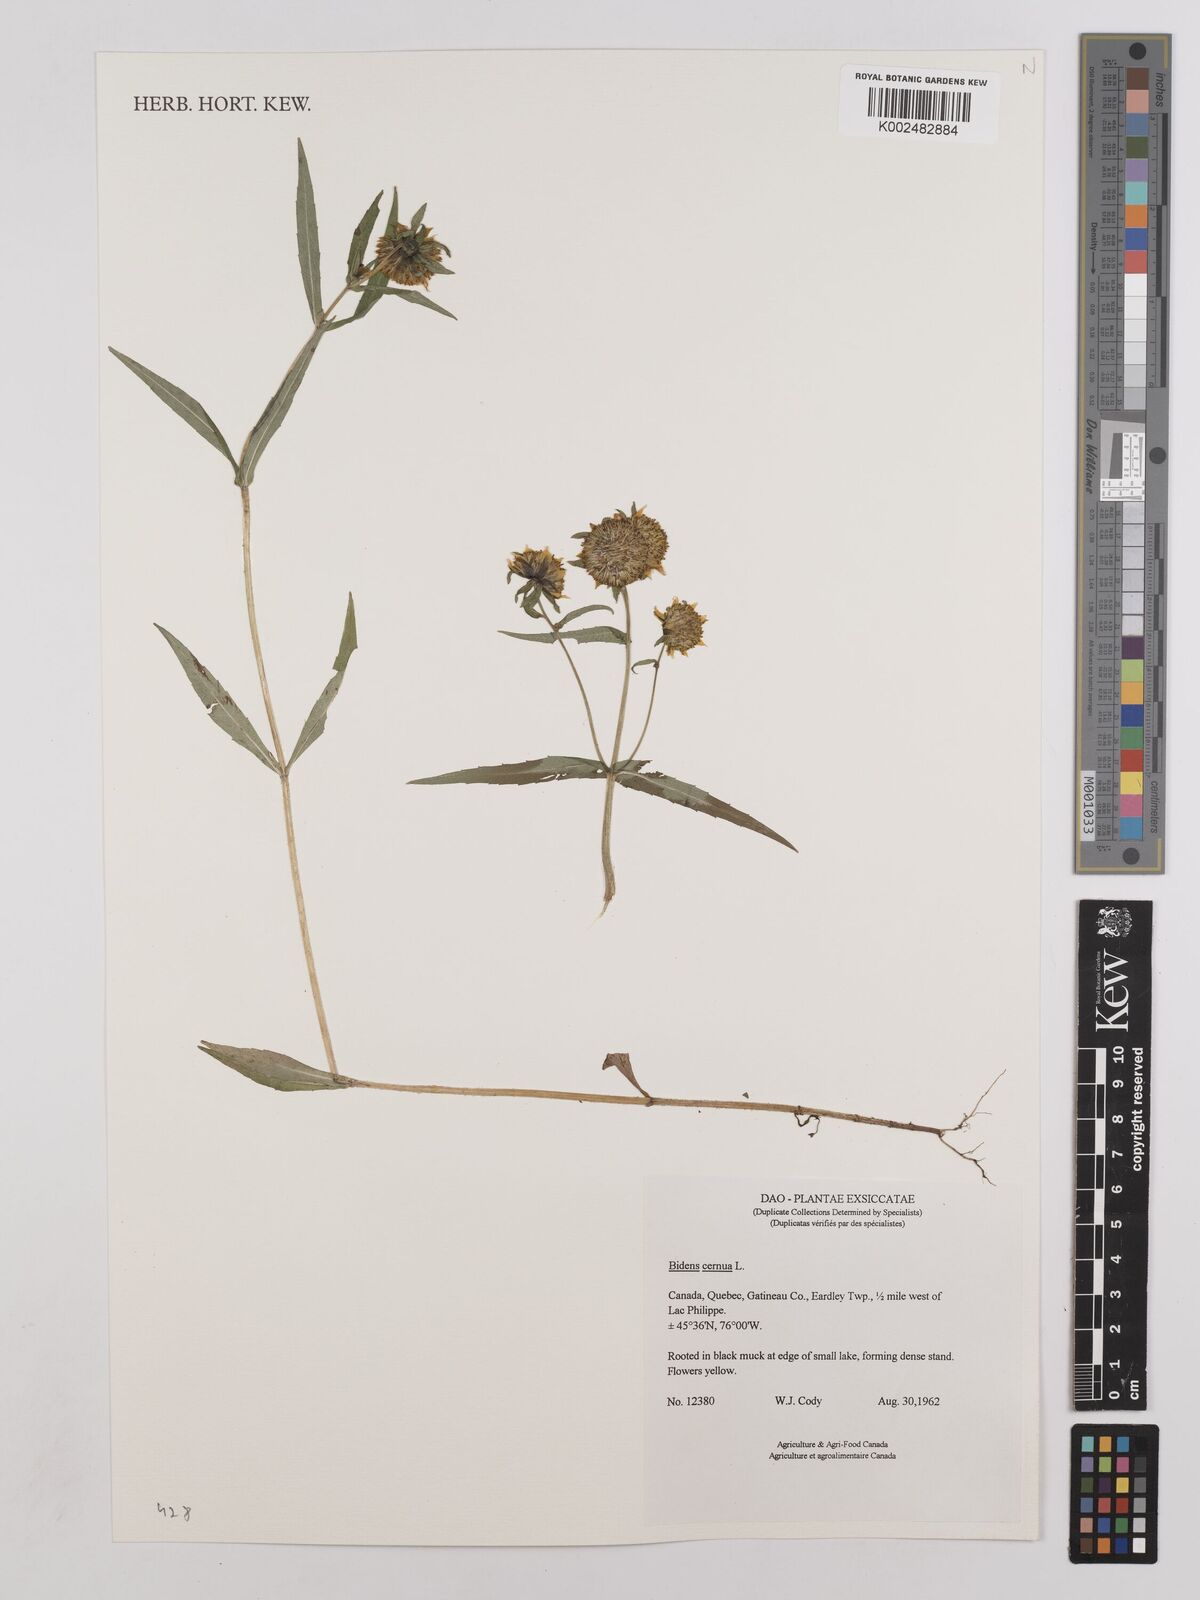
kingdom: Plantae
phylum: Tracheophyta
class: Magnoliopsida
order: Asterales
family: Asteraceae
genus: Bidens
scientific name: Bidens
